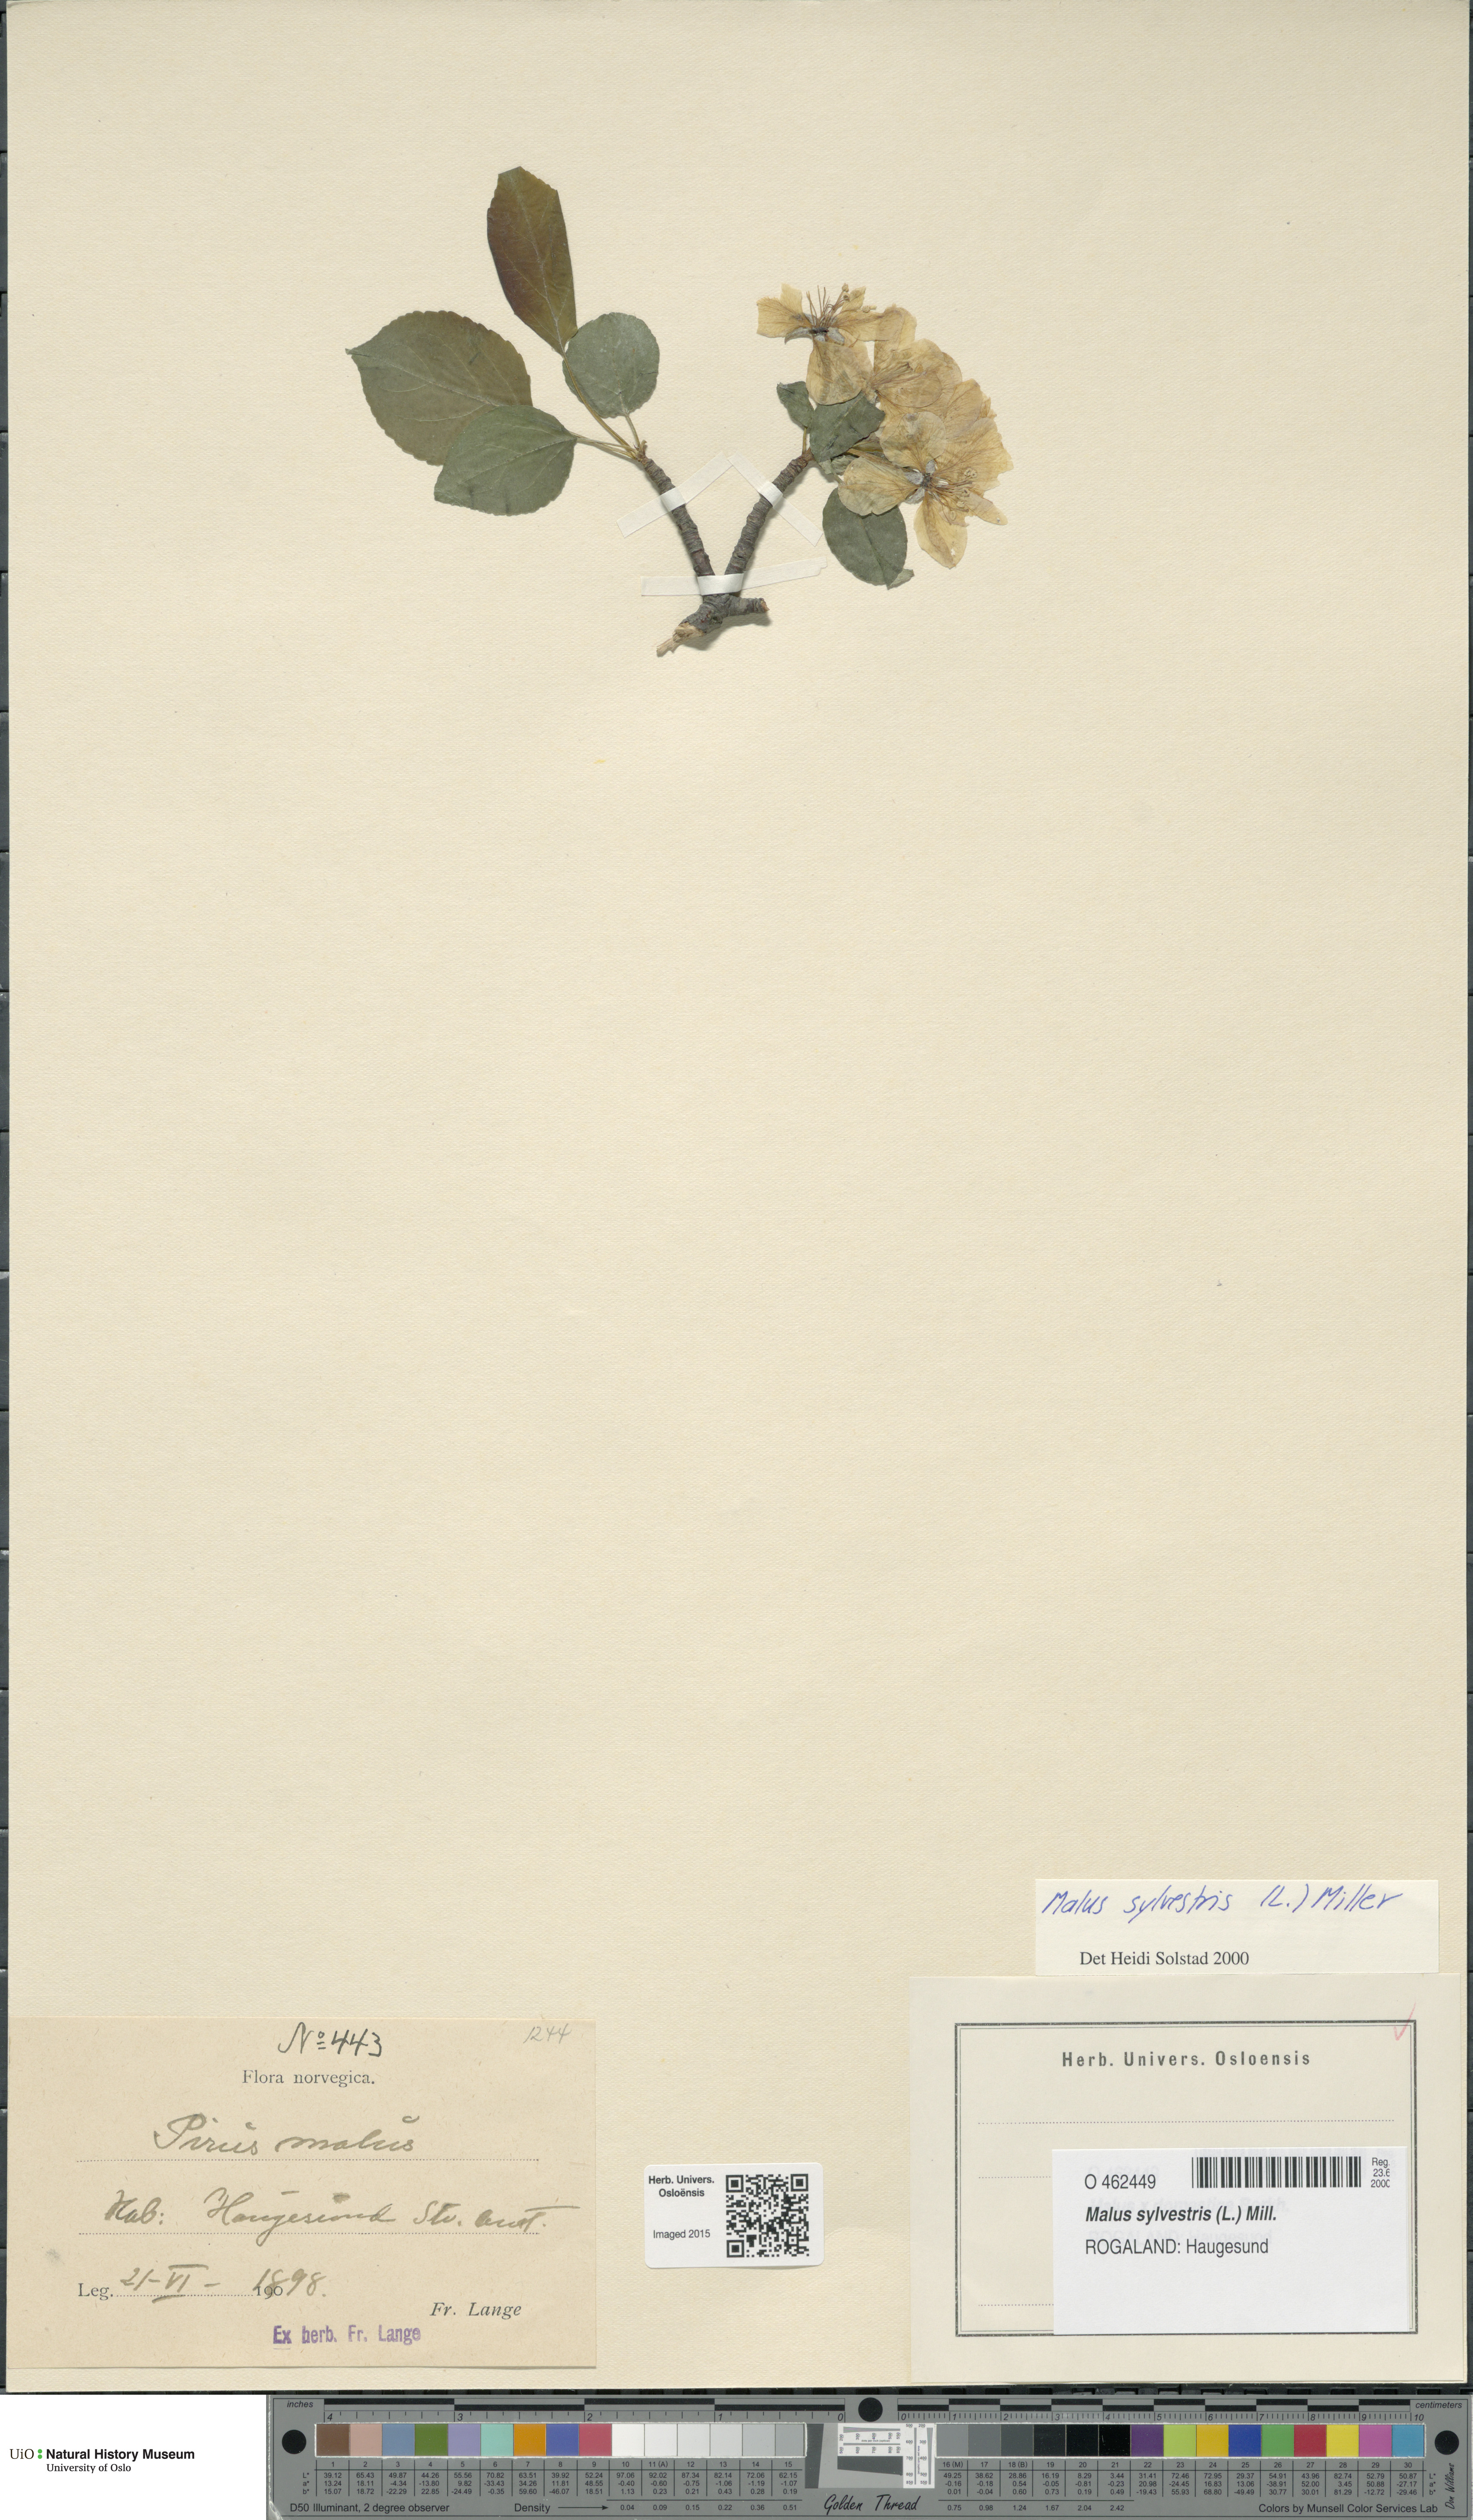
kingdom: Plantae
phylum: Tracheophyta
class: Magnoliopsida
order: Rosales
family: Rosaceae
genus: Malus
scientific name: Malus sylvestris
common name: Crab apple
